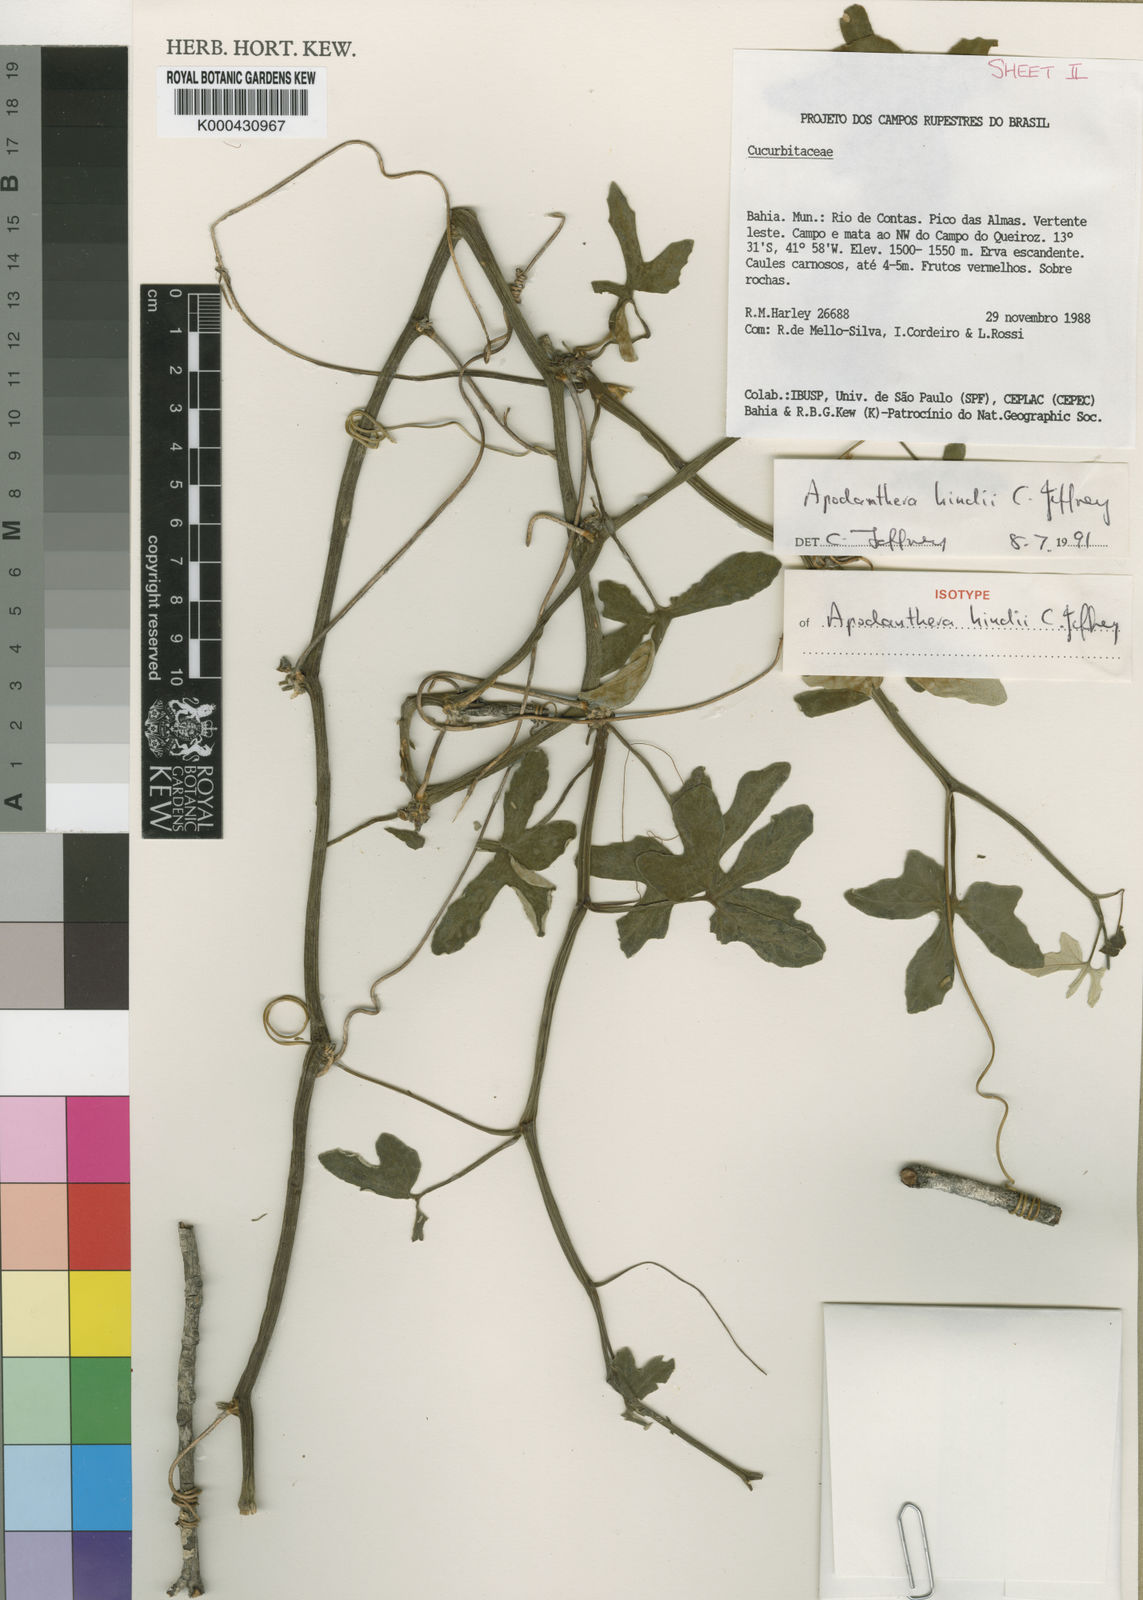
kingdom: Plantae
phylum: Tracheophyta
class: Magnoliopsida
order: Cucurbitales
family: Cucurbitaceae
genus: Apodanthera
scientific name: Apodanthera hindii
